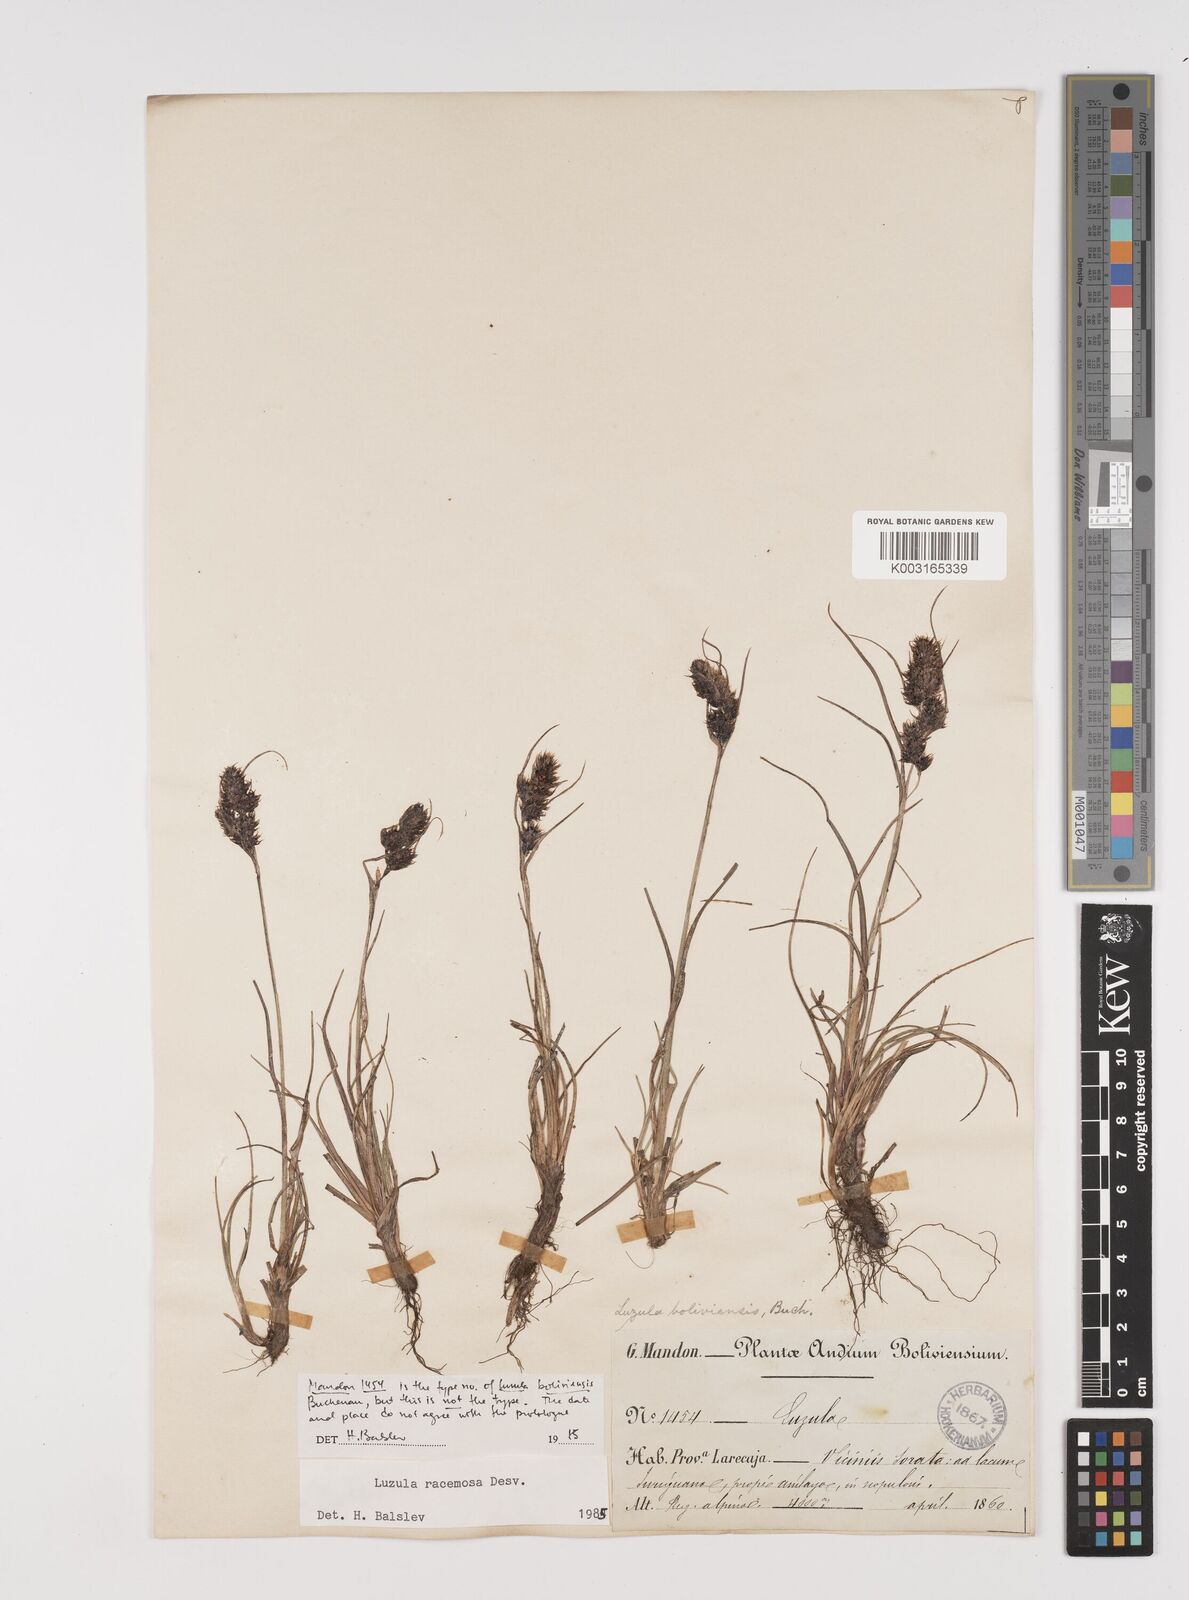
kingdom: Plantae
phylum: Tracheophyta
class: Liliopsida
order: Poales
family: Juncaceae
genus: Luzula
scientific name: Luzula racemosa
